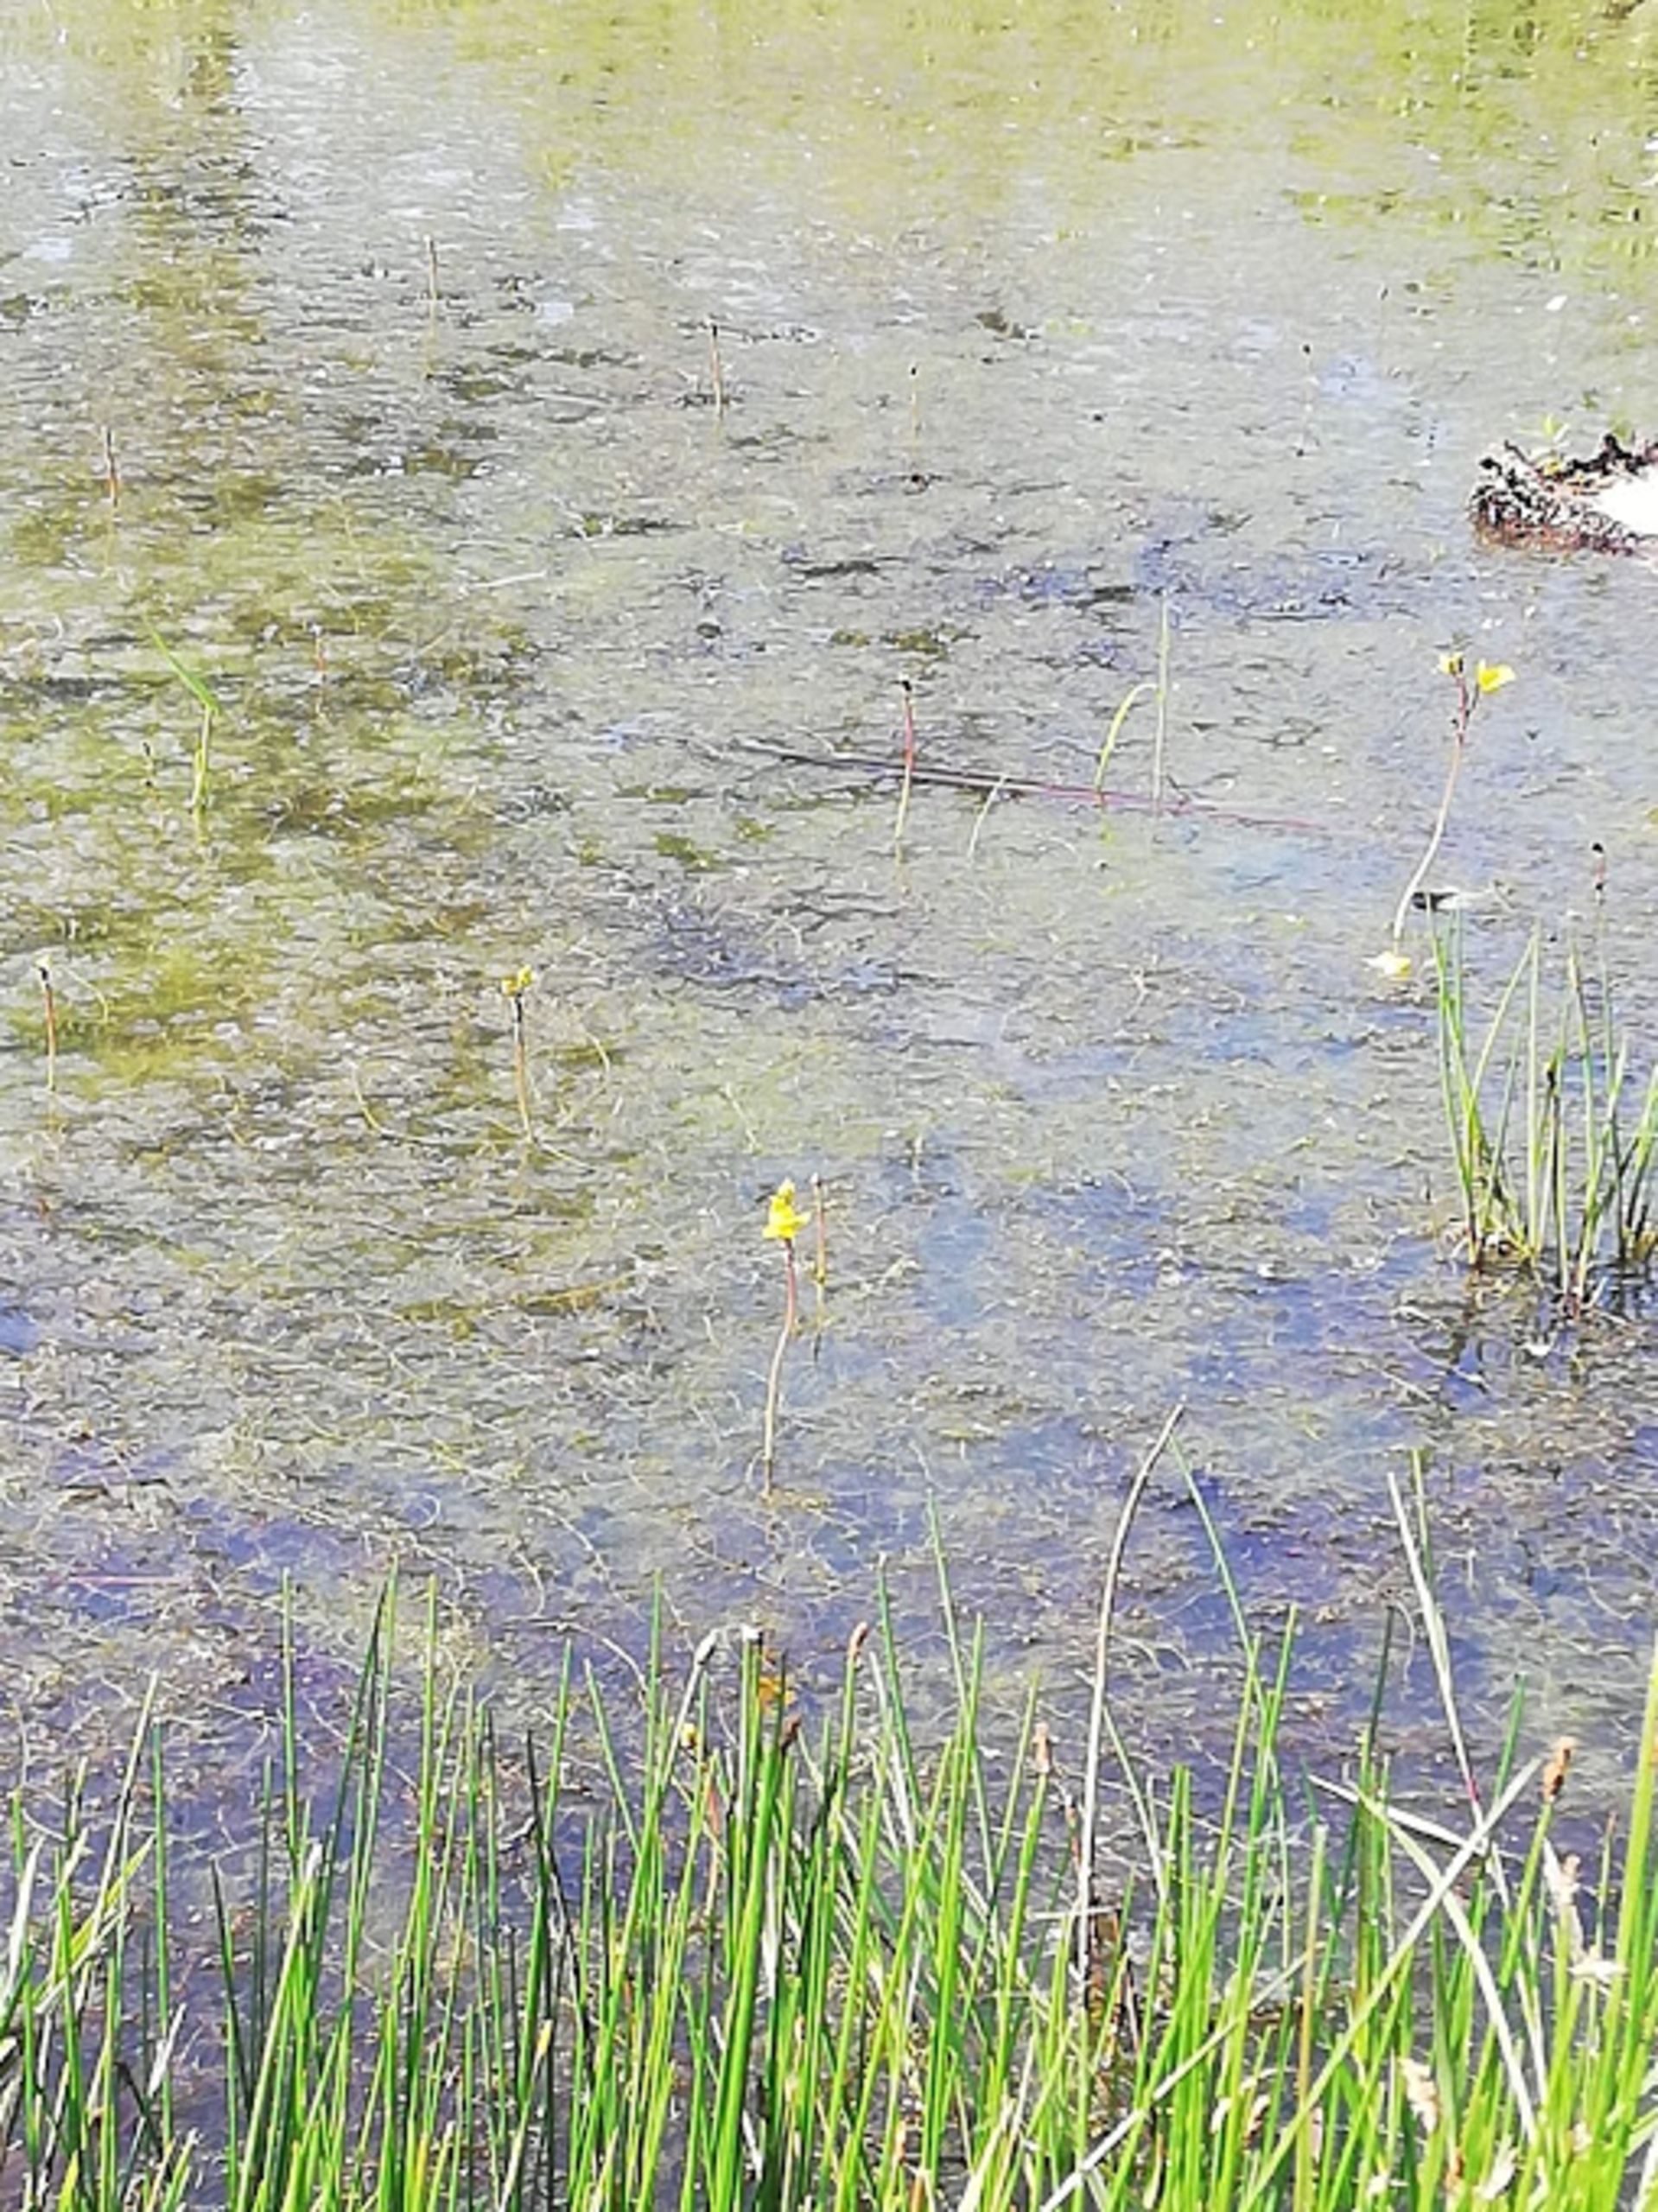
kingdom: Plantae
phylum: Tracheophyta
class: Magnoliopsida
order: Lamiales
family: Lentibulariaceae
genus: Utricularia
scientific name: Utricularia australis
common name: Slank blærerod
